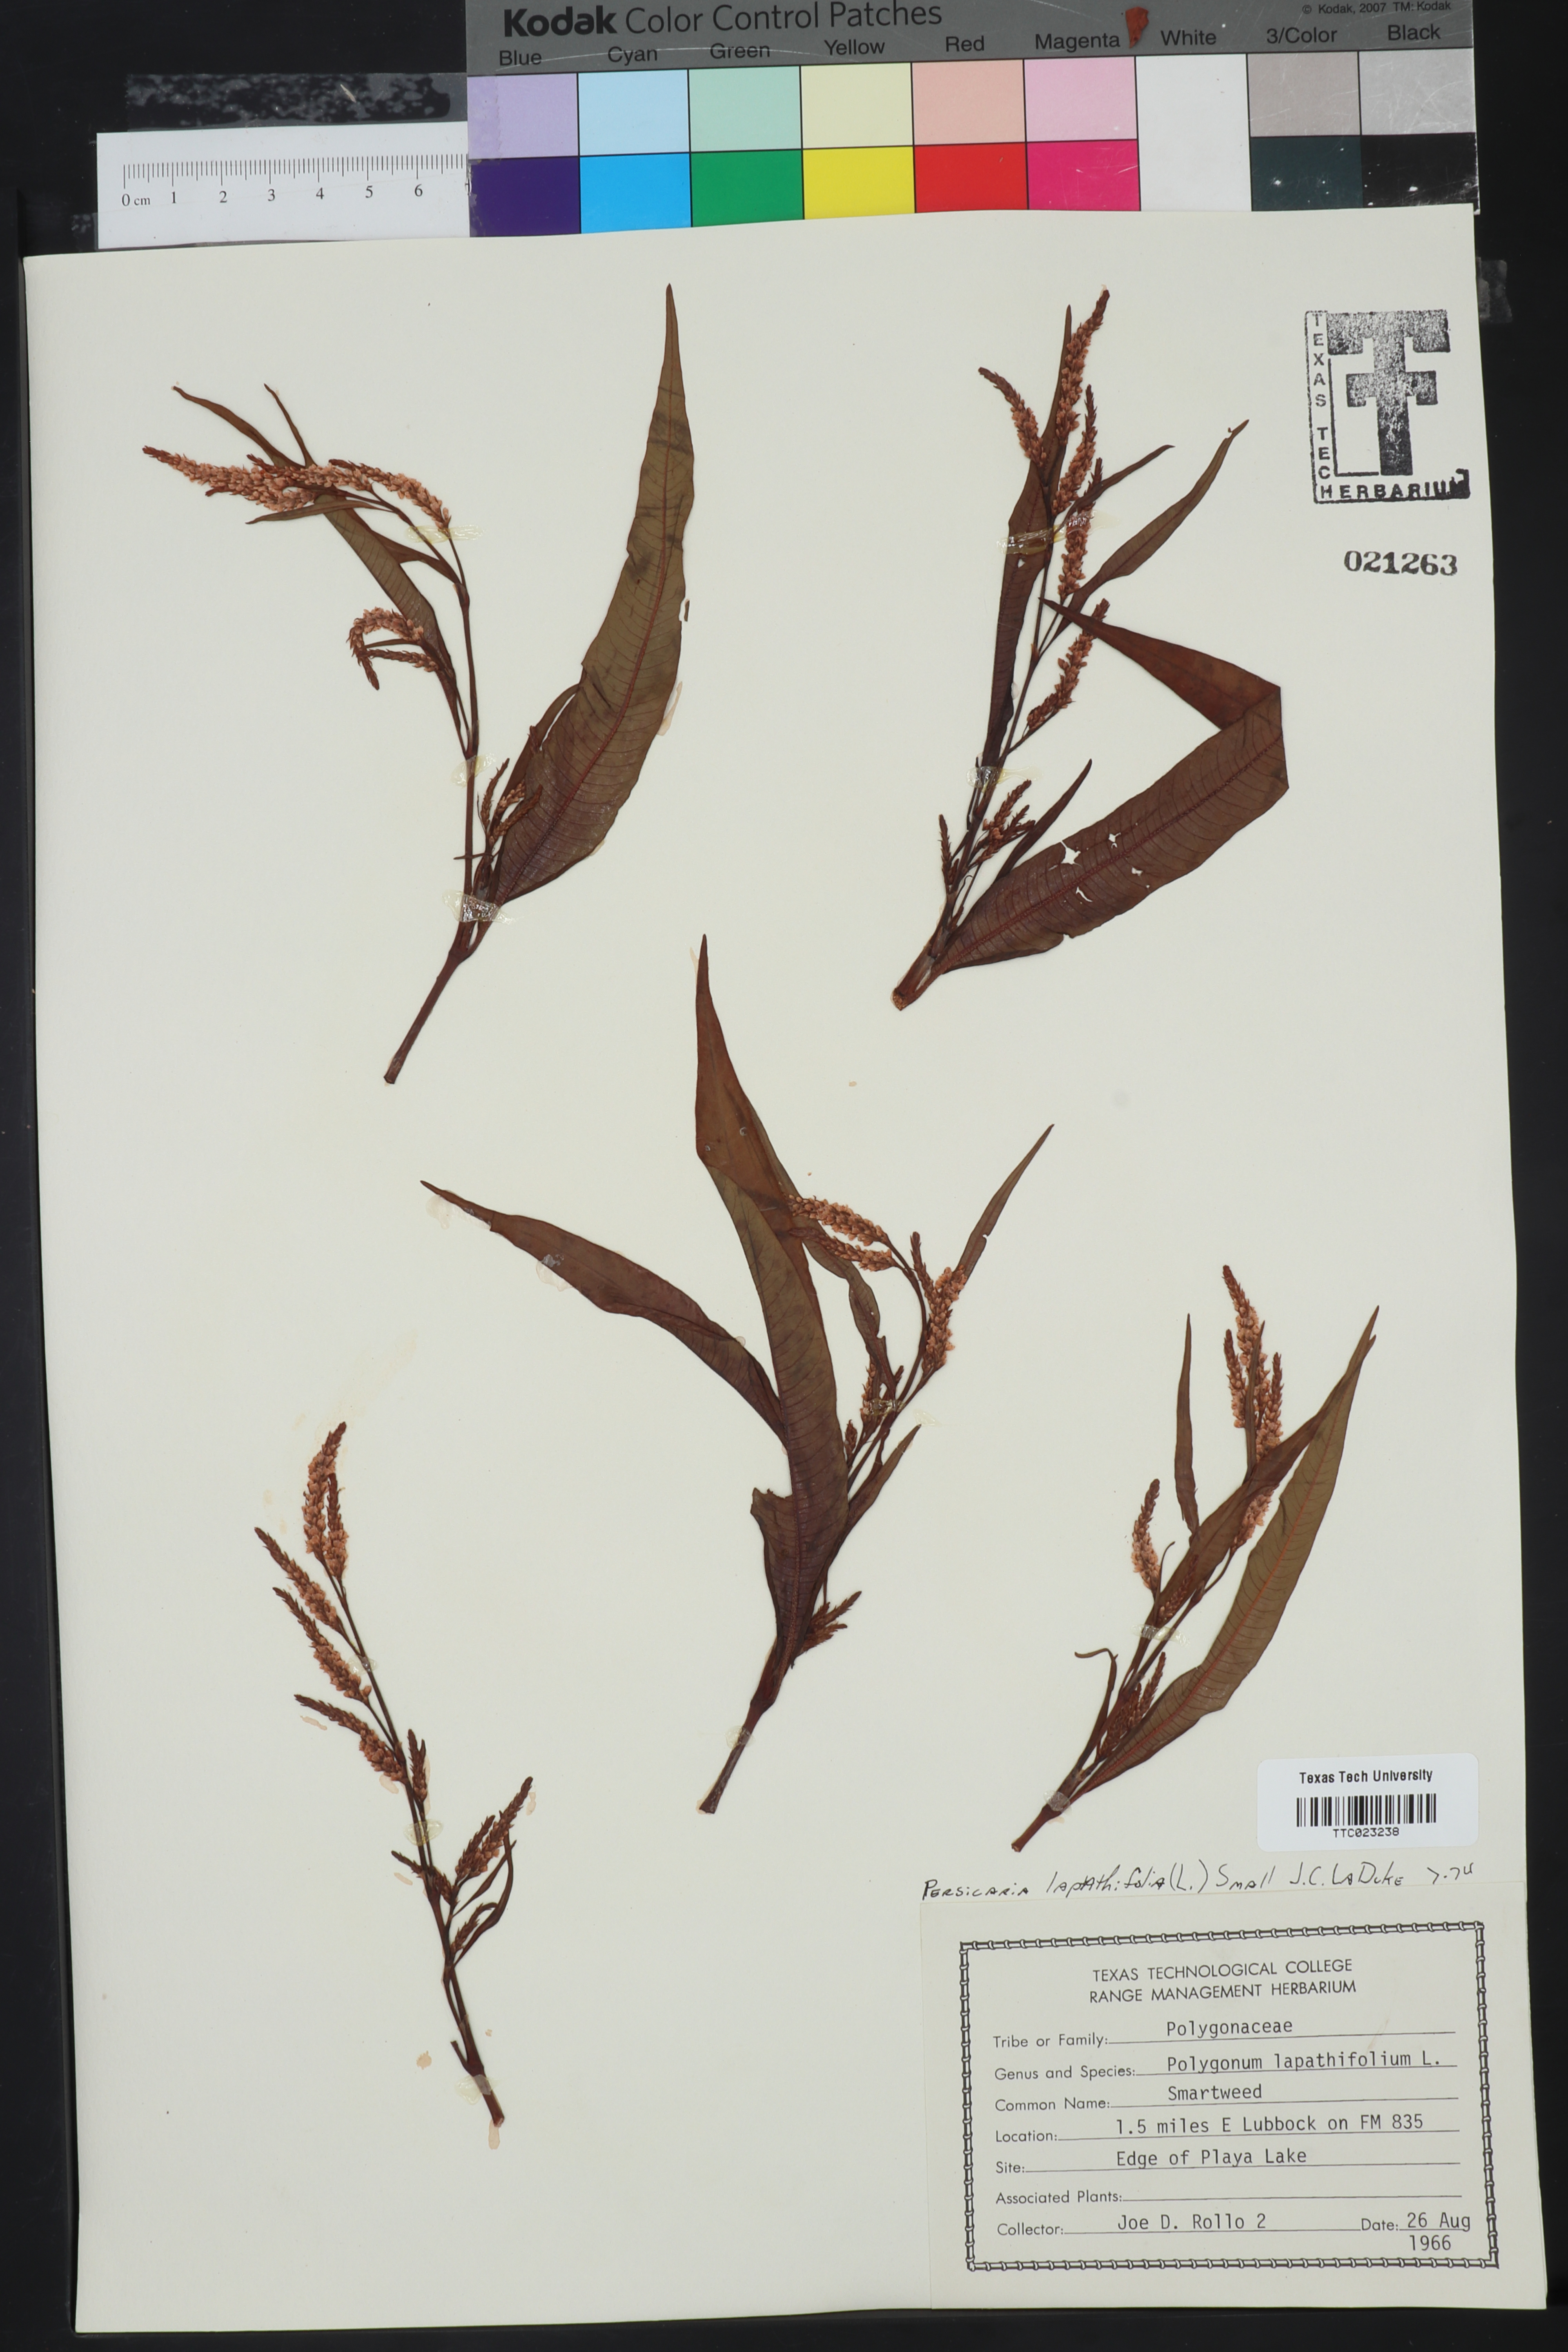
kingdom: Plantae
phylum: Tracheophyta
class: Magnoliopsida
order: Caryophyllales
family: Polygonaceae
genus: Persicaria
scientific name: Persicaria lapathifolia
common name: Curlytop knotweed
